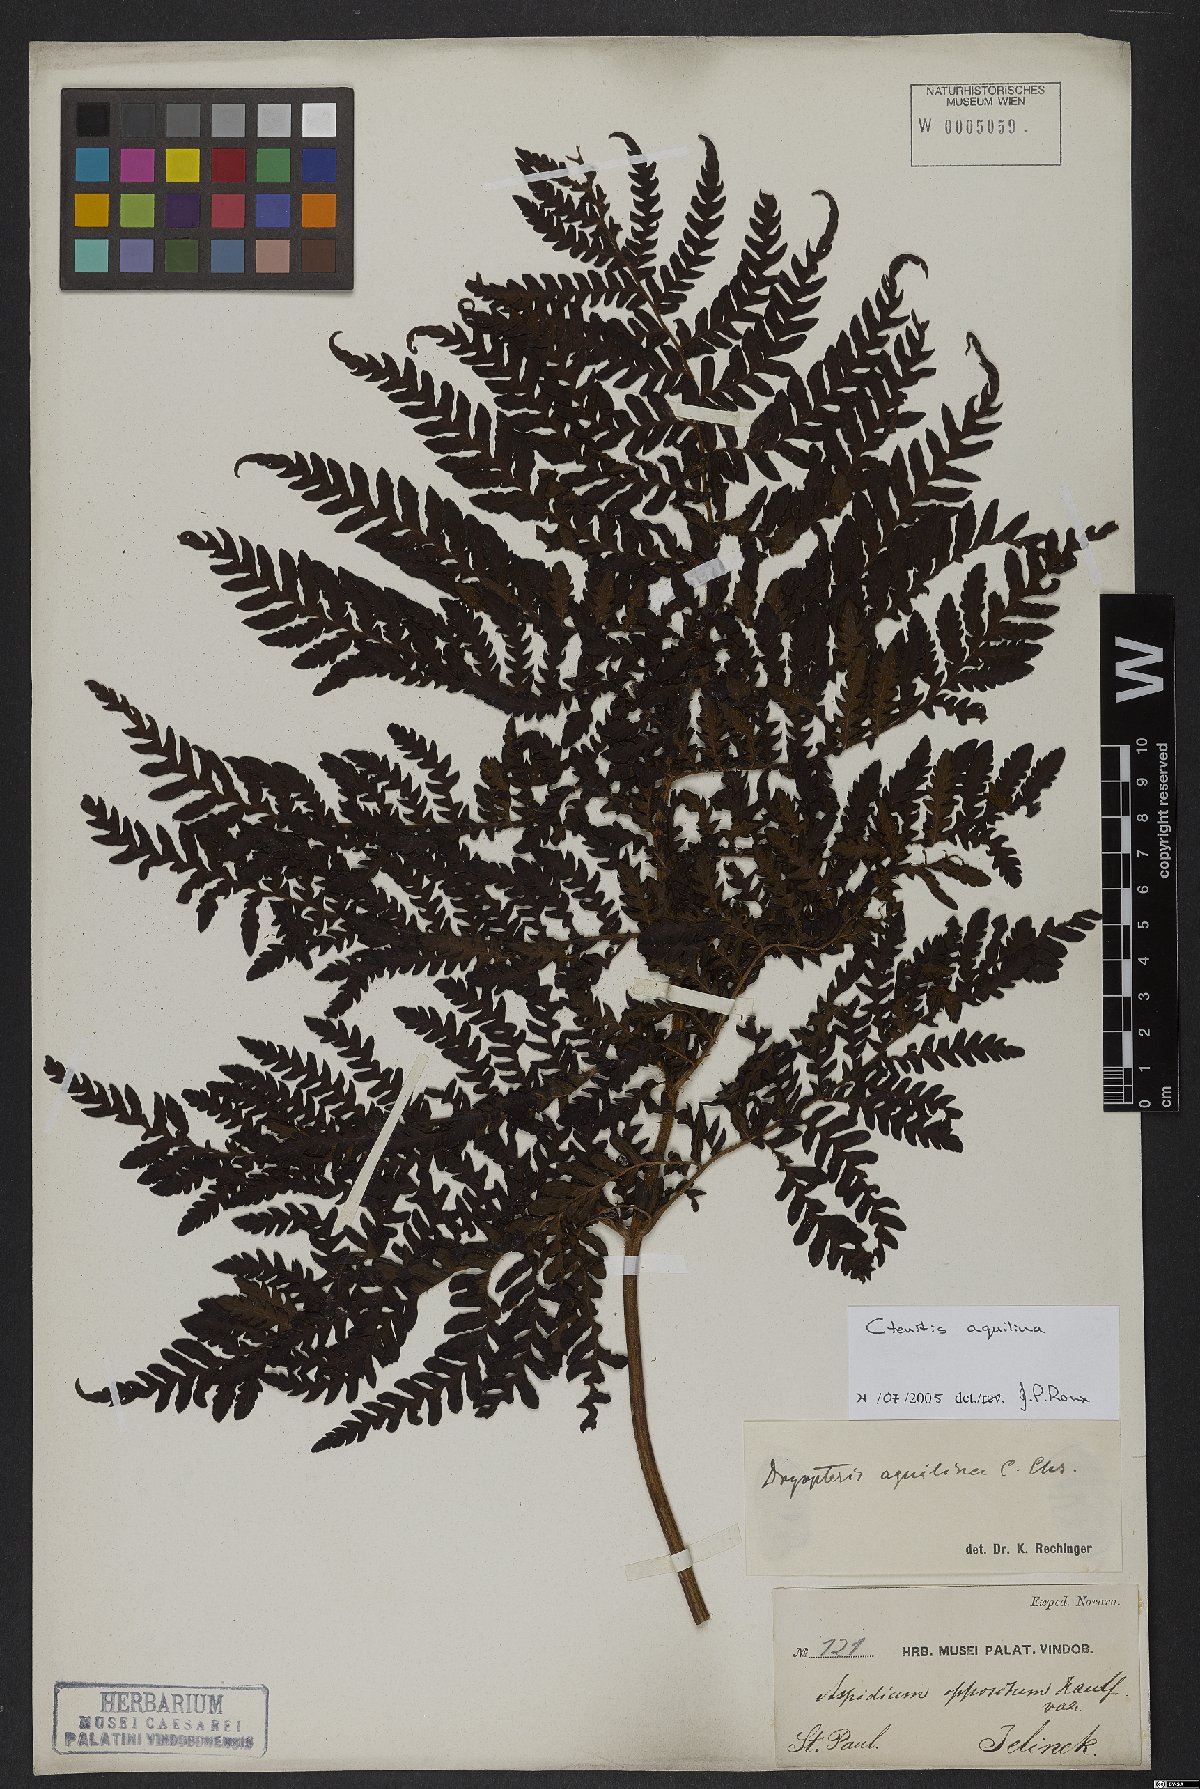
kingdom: Plantae
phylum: Tracheophyta
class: Polypodiopsida
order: Polypodiales
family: Dryopteridaceae
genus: Megalastrum
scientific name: Megalastrum aquilinum
